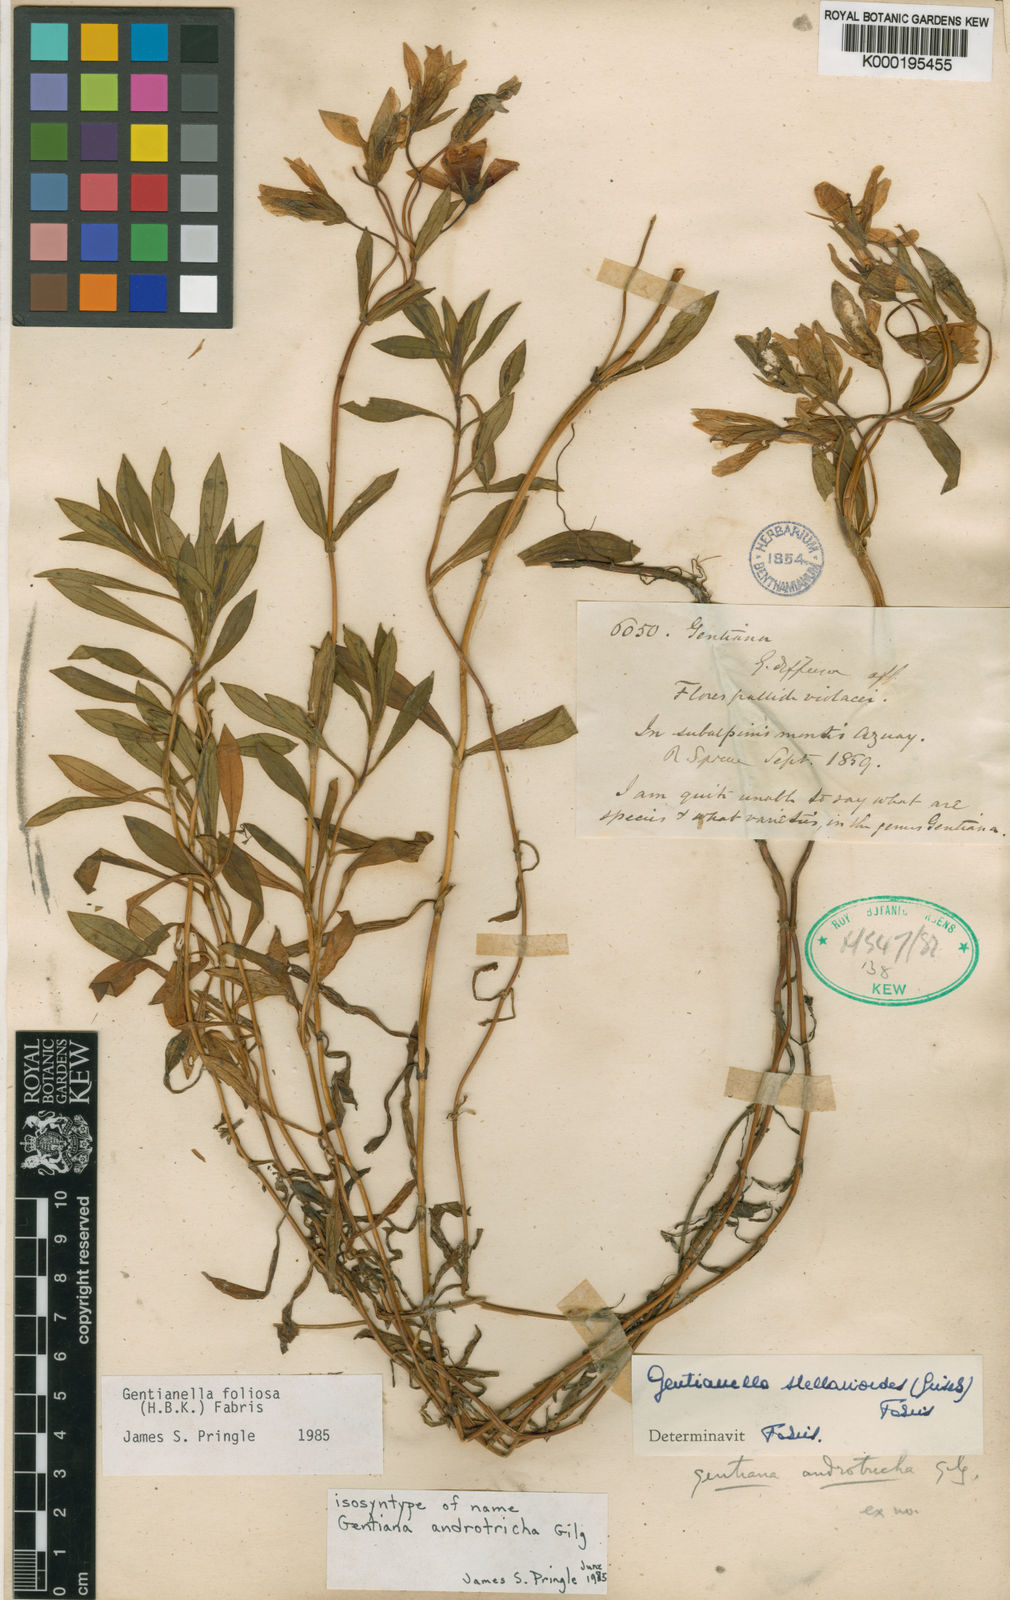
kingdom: Plantae
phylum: Tracheophyta
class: Magnoliopsida
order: Gentianales
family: Gentianaceae
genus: Gentianella
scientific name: Gentianella foliosa
